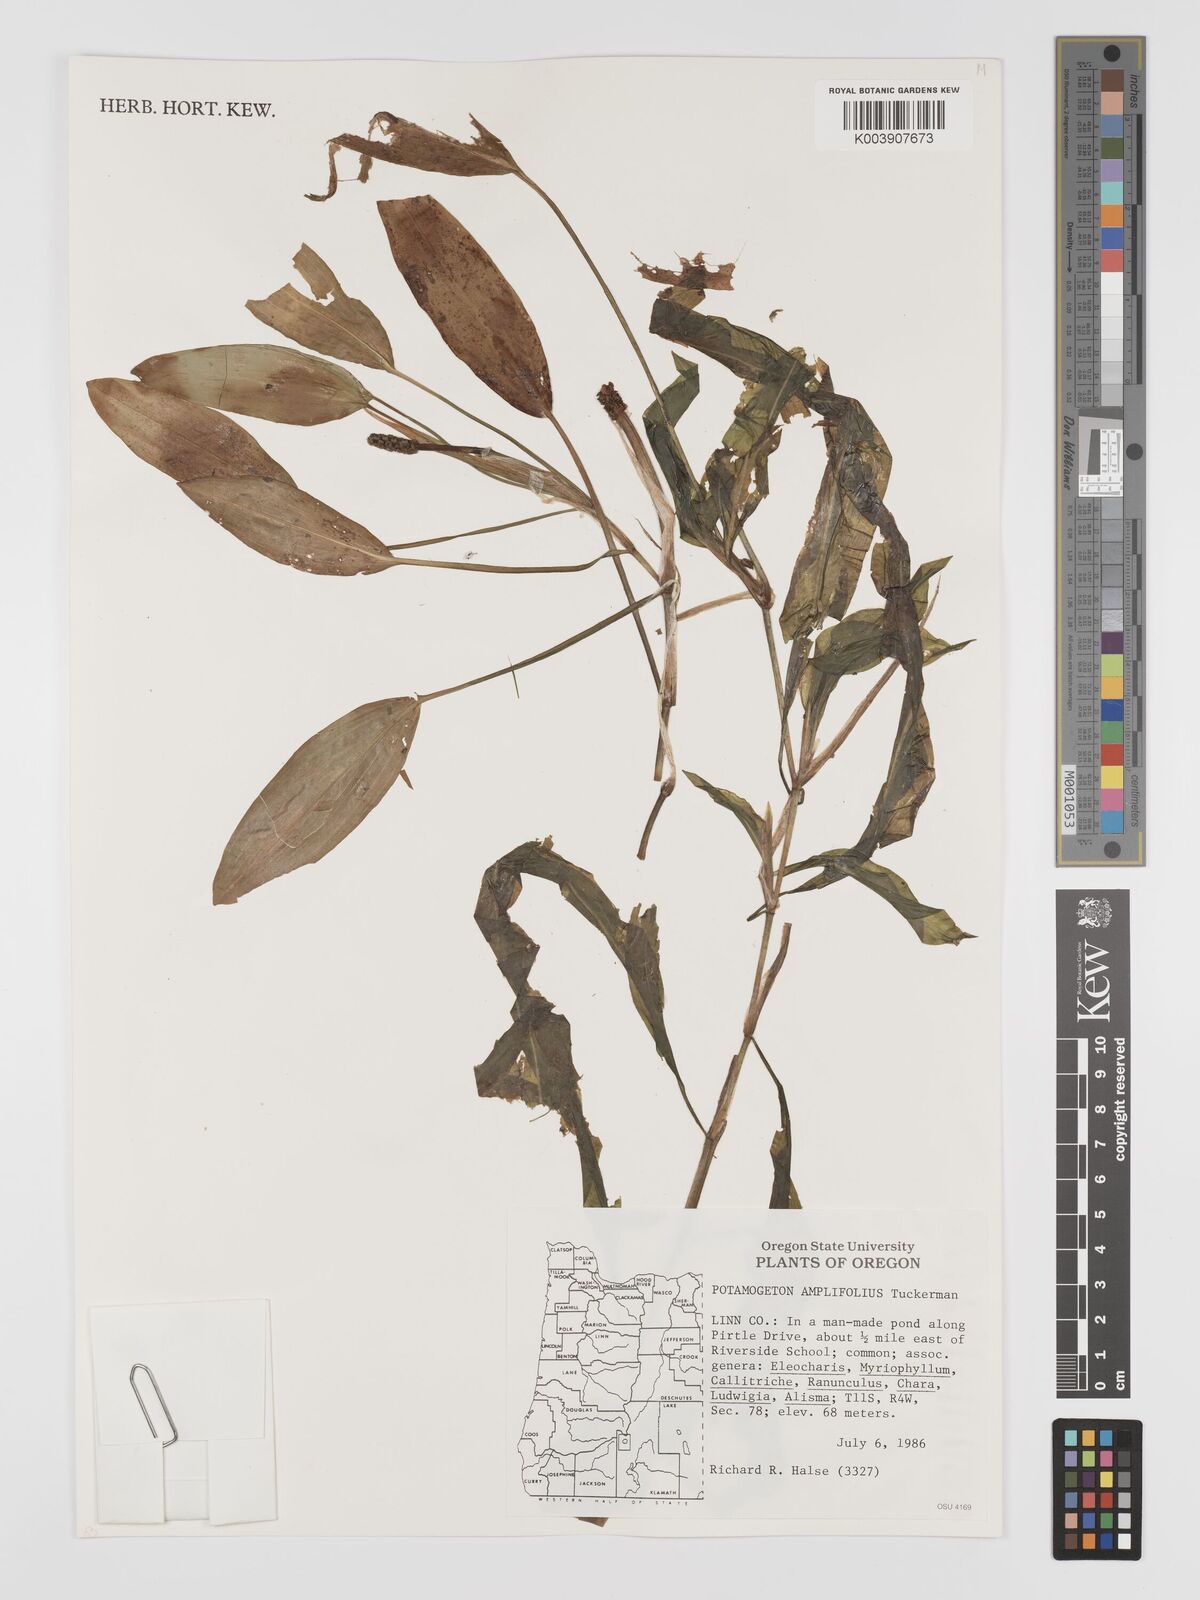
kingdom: Plantae
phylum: Tracheophyta
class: Liliopsida
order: Alismatales
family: Potamogetonaceae
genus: Potamogeton
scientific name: Potamogeton amplifolius
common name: Broad-leaved pondweed
